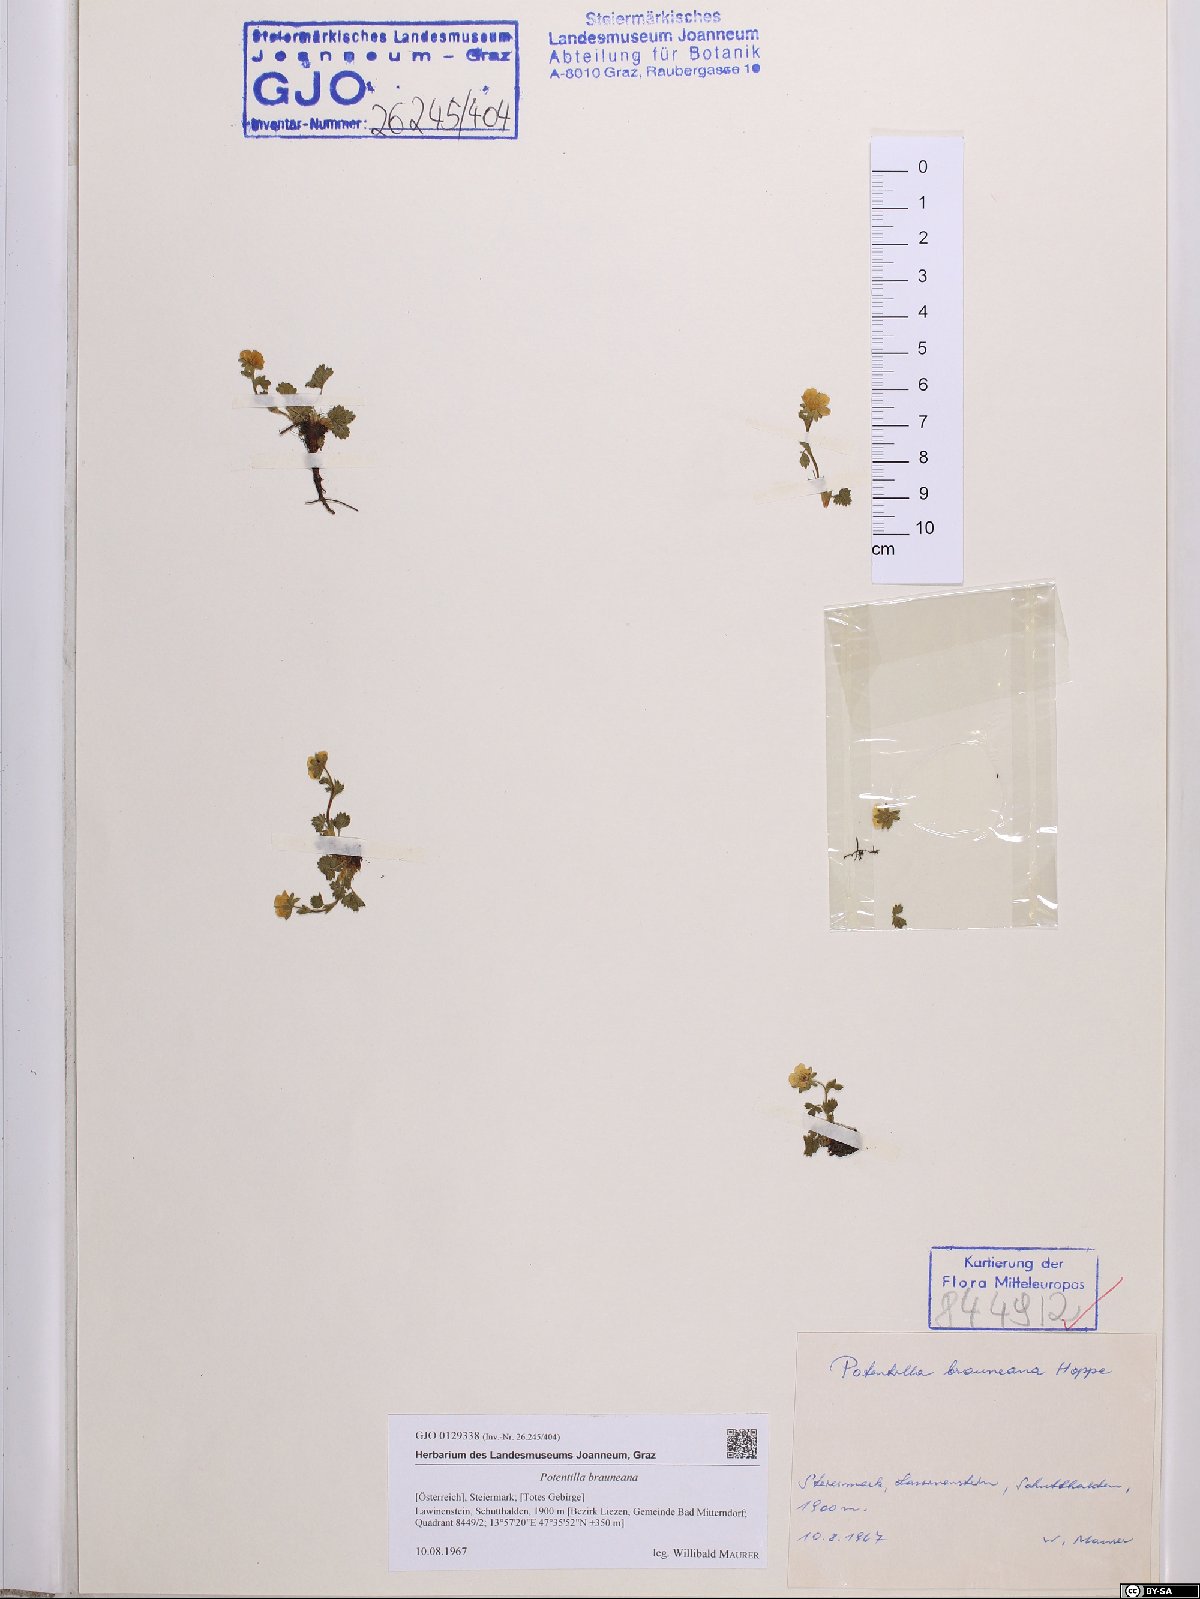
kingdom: Plantae
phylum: Tracheophyta
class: Magnoliopsida
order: Rosales
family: Rosaceae
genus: Potentilla
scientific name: Potentilla brauneana
